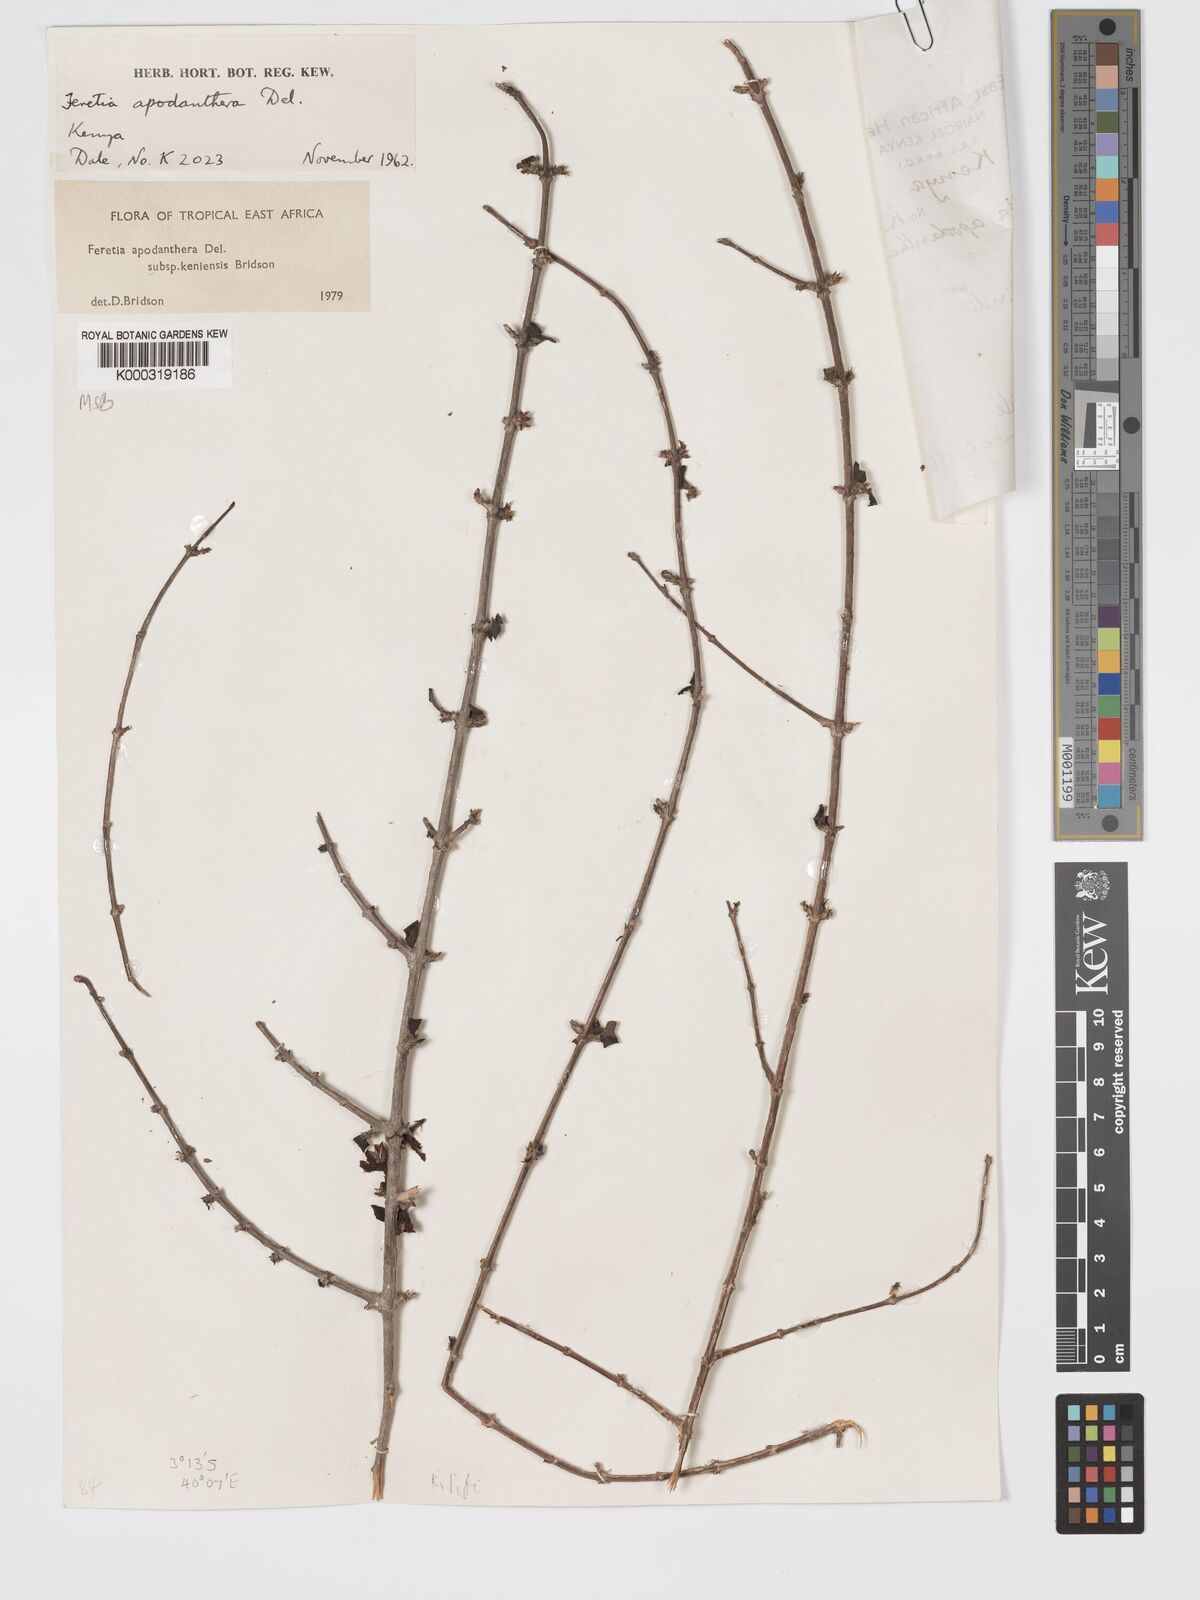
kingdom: Plantae
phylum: Tracheophyta
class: Magnoliopsida
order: Gentianales
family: Rubiaceae
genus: Feretia
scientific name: Feretia apodanthera
